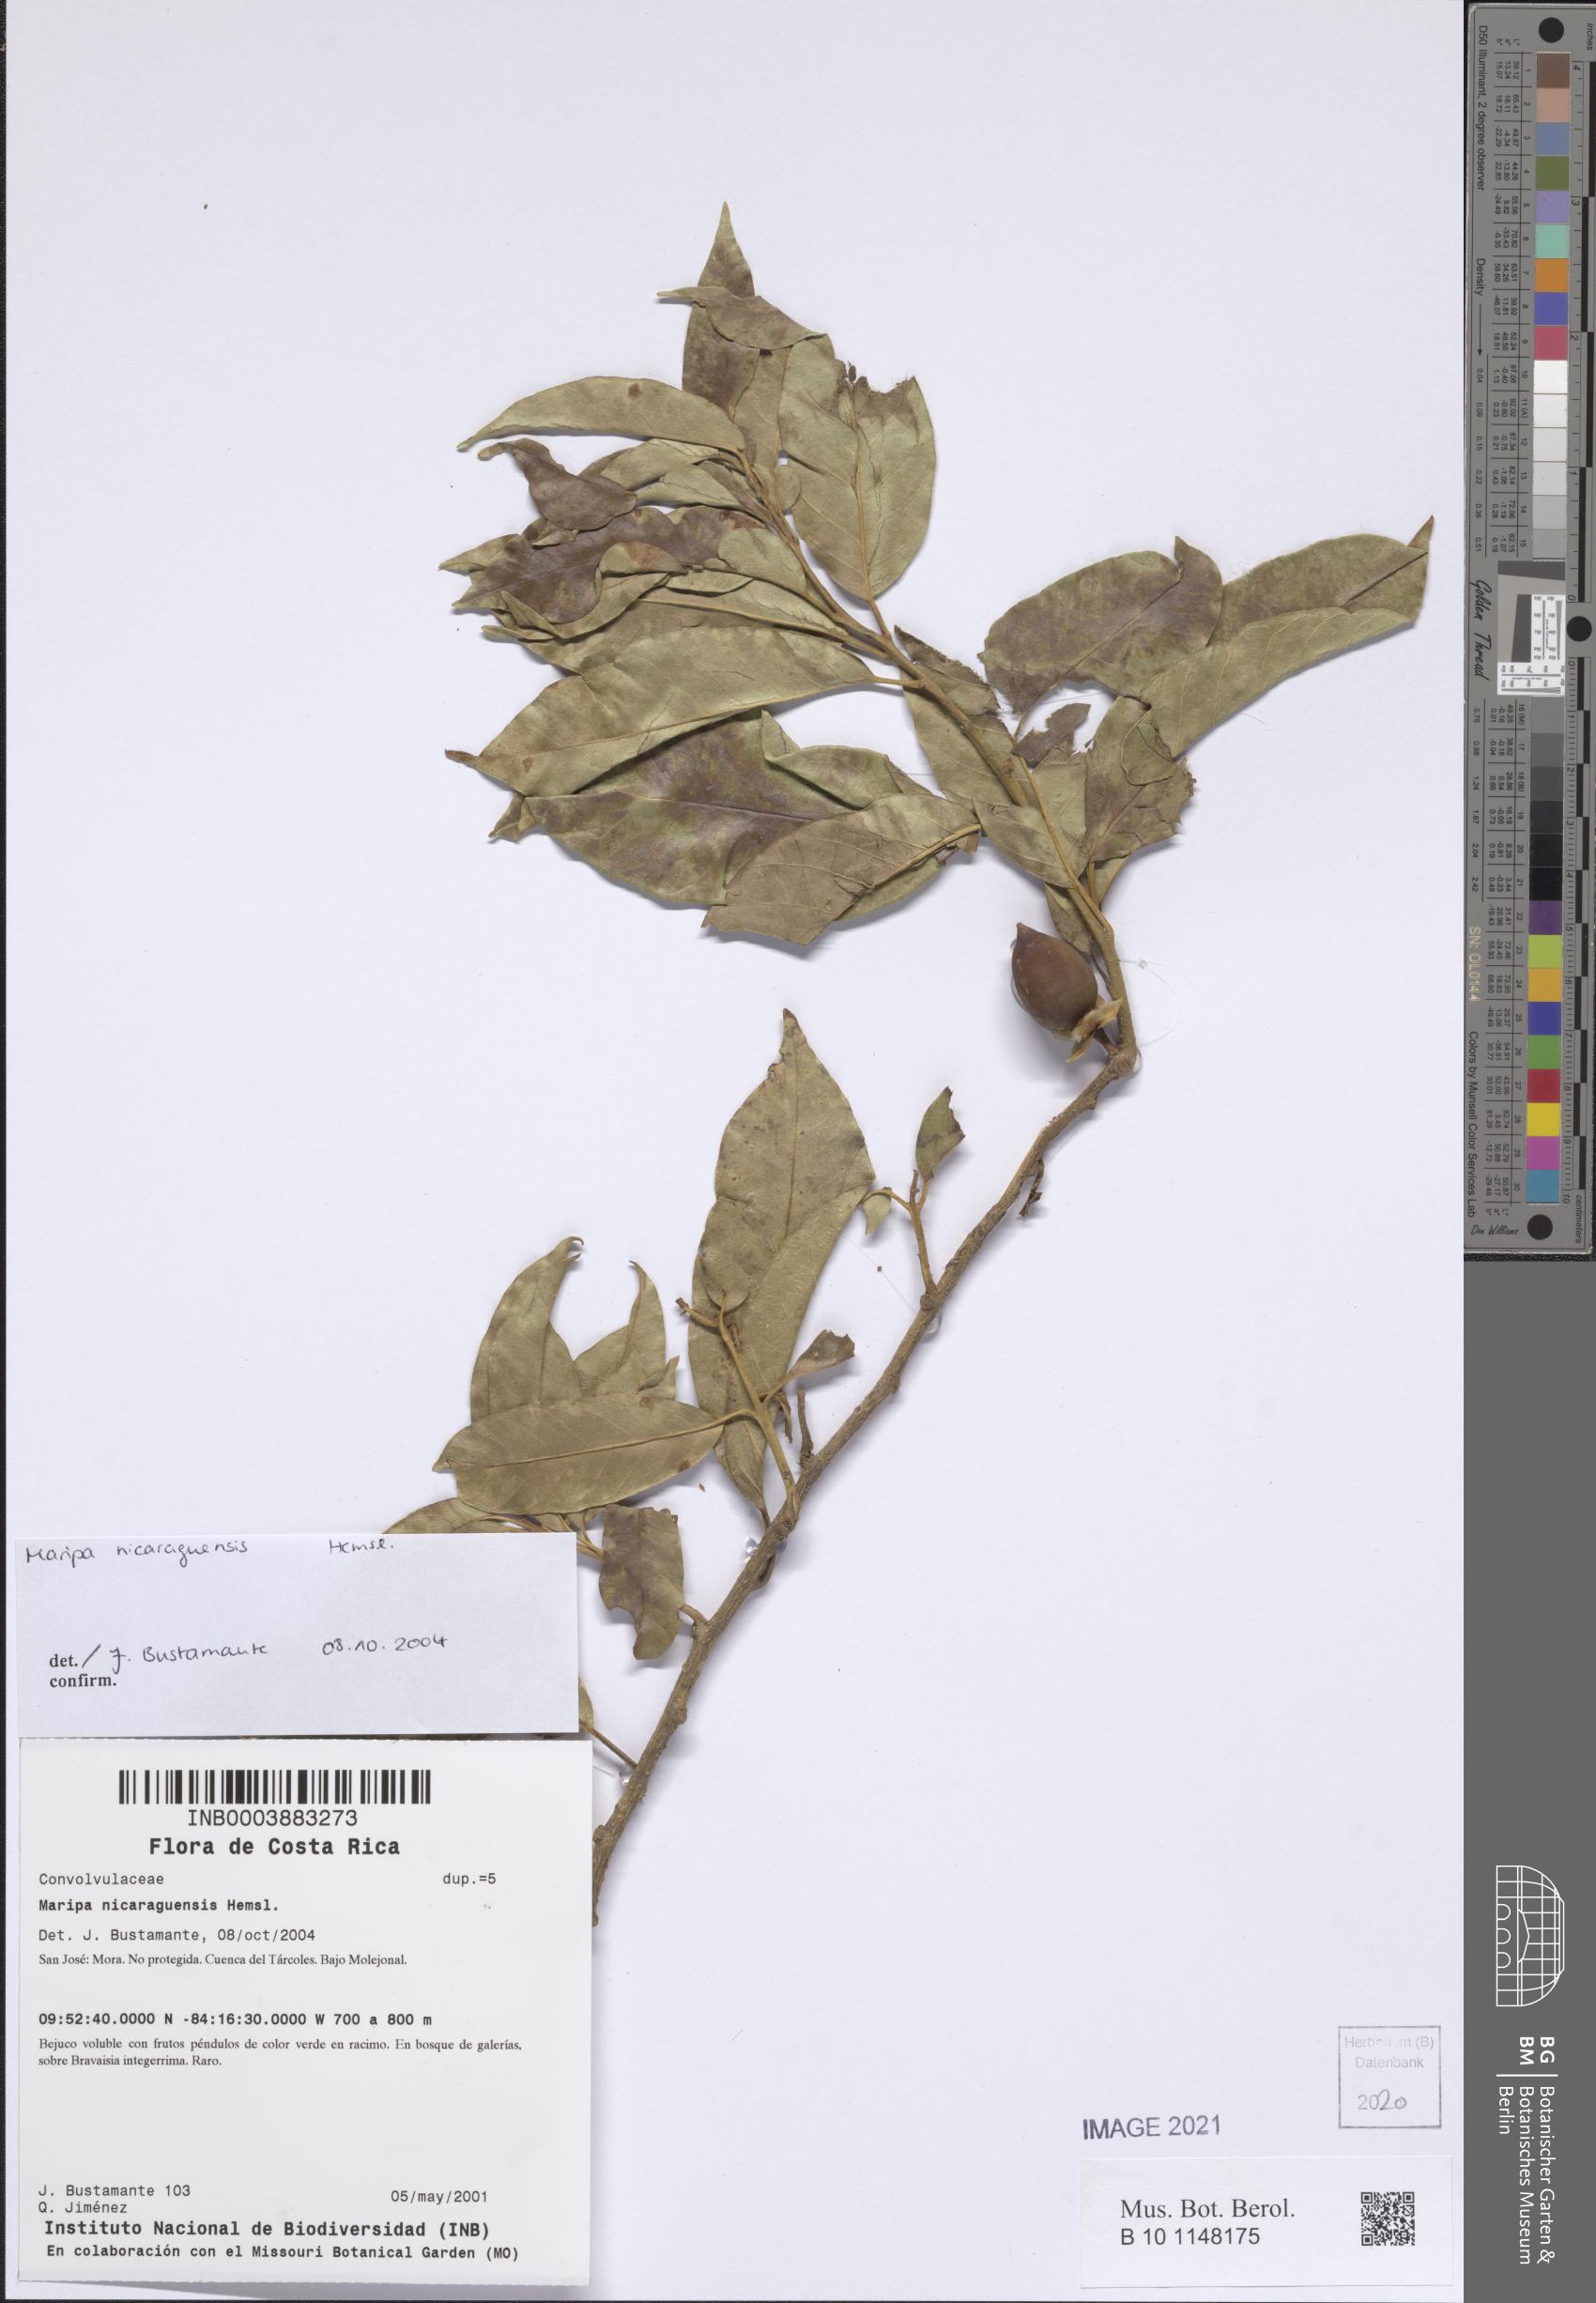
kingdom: Plantae
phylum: Tracheophyta
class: Magnoliopsida
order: Solanales
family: Convolvulaceae
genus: Maripa
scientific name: Maripa nicaraguensis
